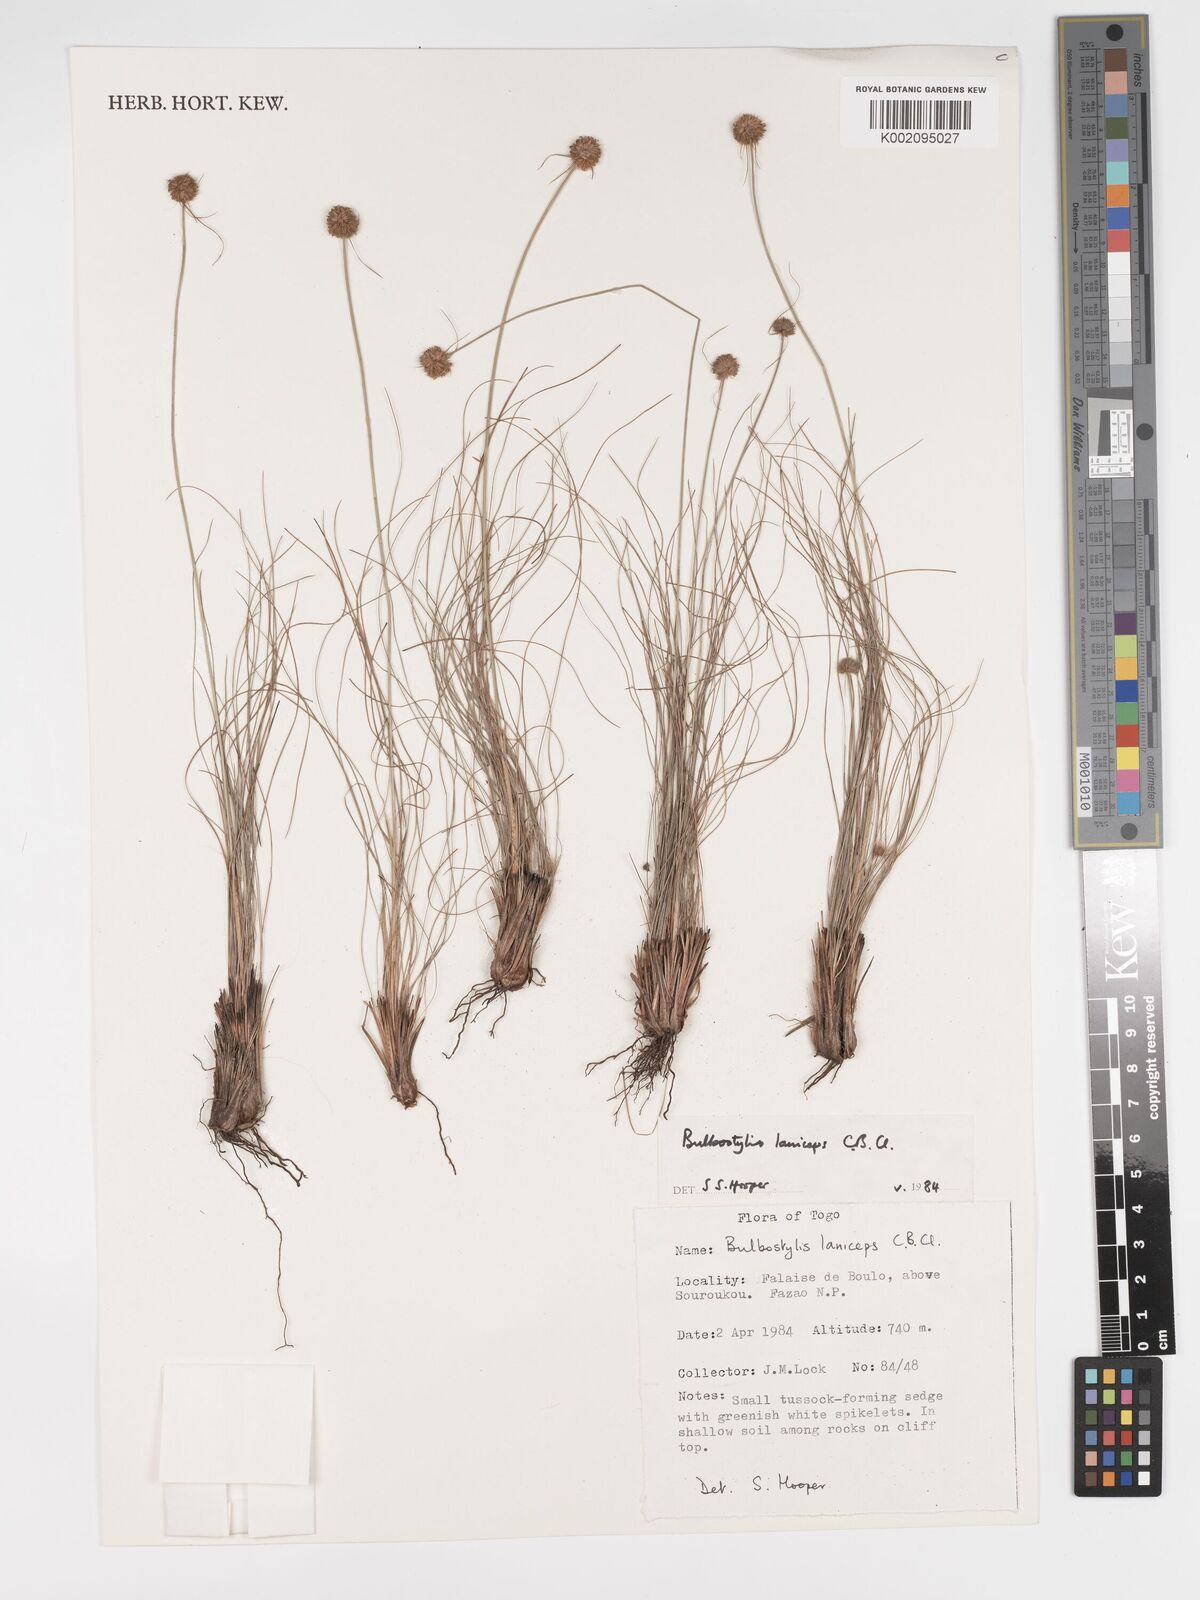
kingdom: Plantae
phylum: Tracheophyta
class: Liliopsida
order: Poales
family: Cyperaceae
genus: Bulbostylis
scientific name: Bulbostylis laniceps
